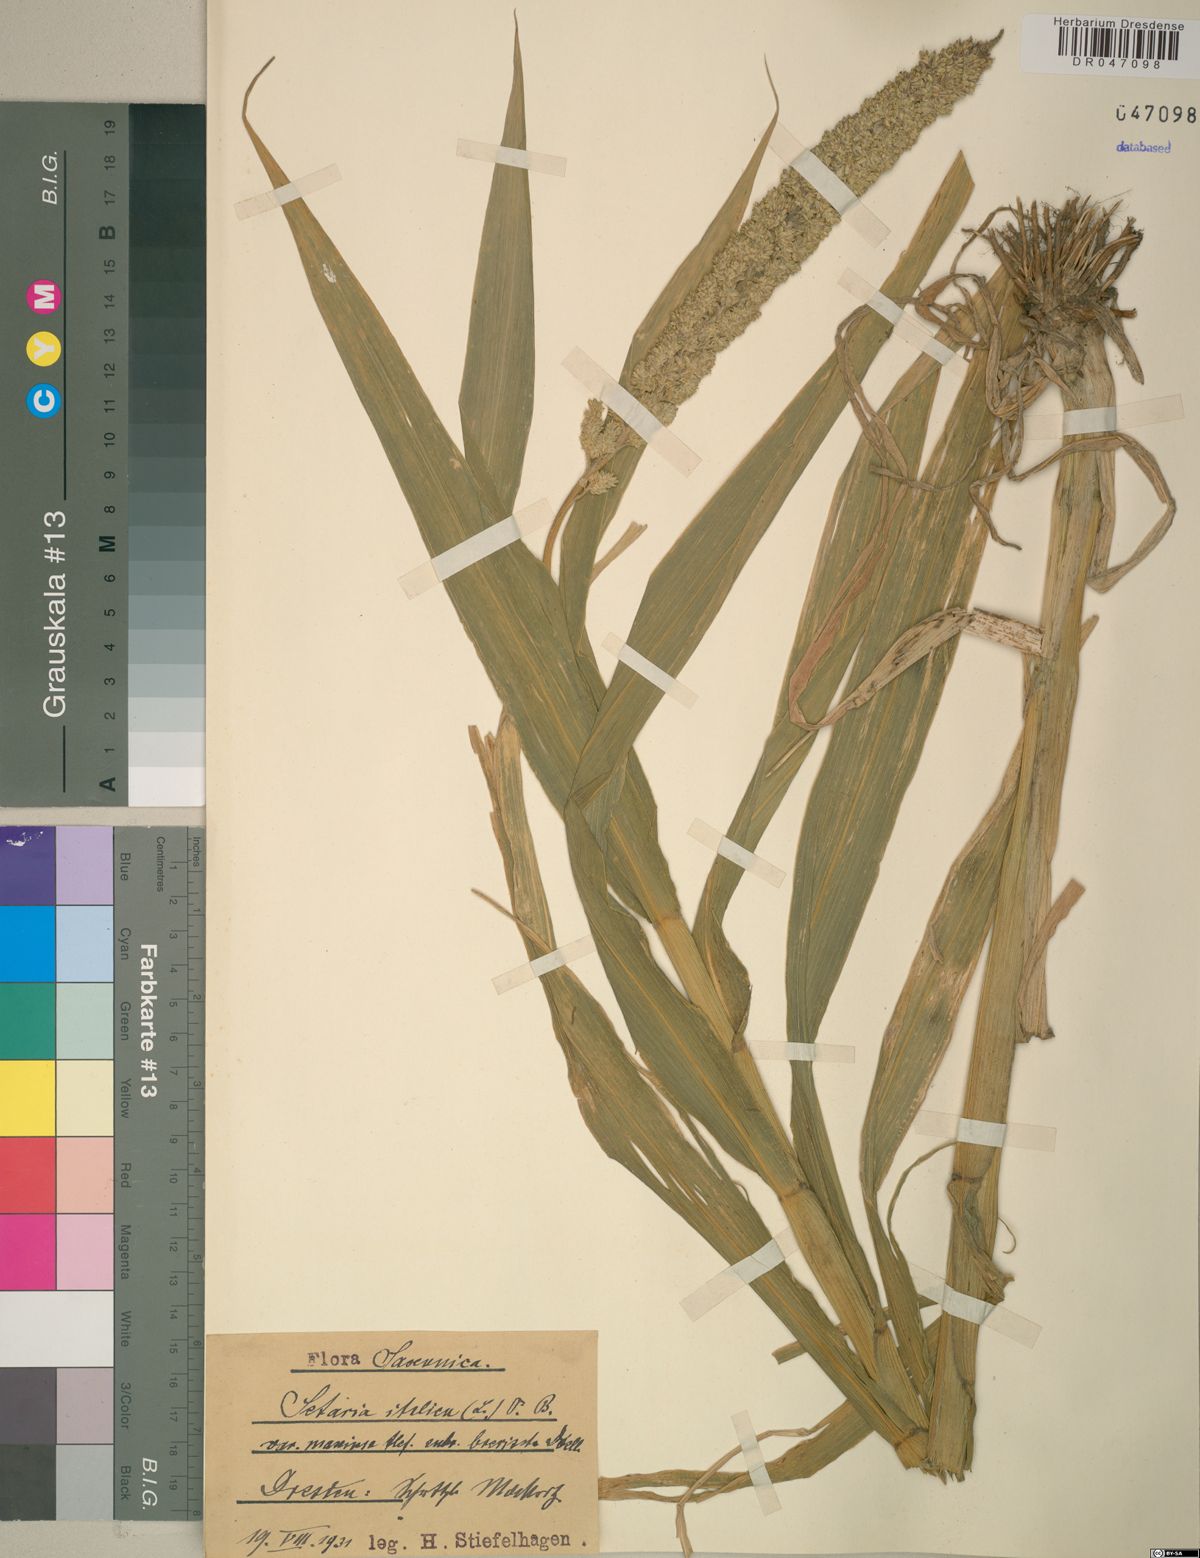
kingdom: Plantae
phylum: Tracheophyta
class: Liliopsida
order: Poales
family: Poaceae
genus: Setaria
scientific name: Setaria italica
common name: Foxtail bristle-grass
